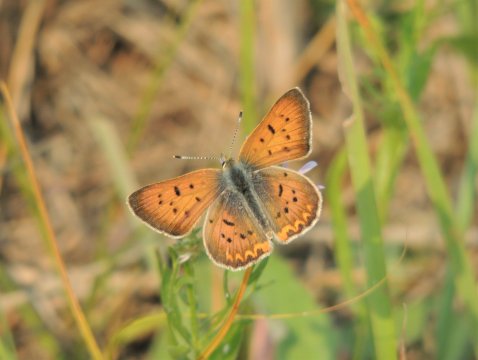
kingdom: Animalia
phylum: Arthropoda
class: Insecta
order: Lepidoptera
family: Sesiidae
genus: Sesia
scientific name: Sesia Lycaena helloides
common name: Purplish Copper
